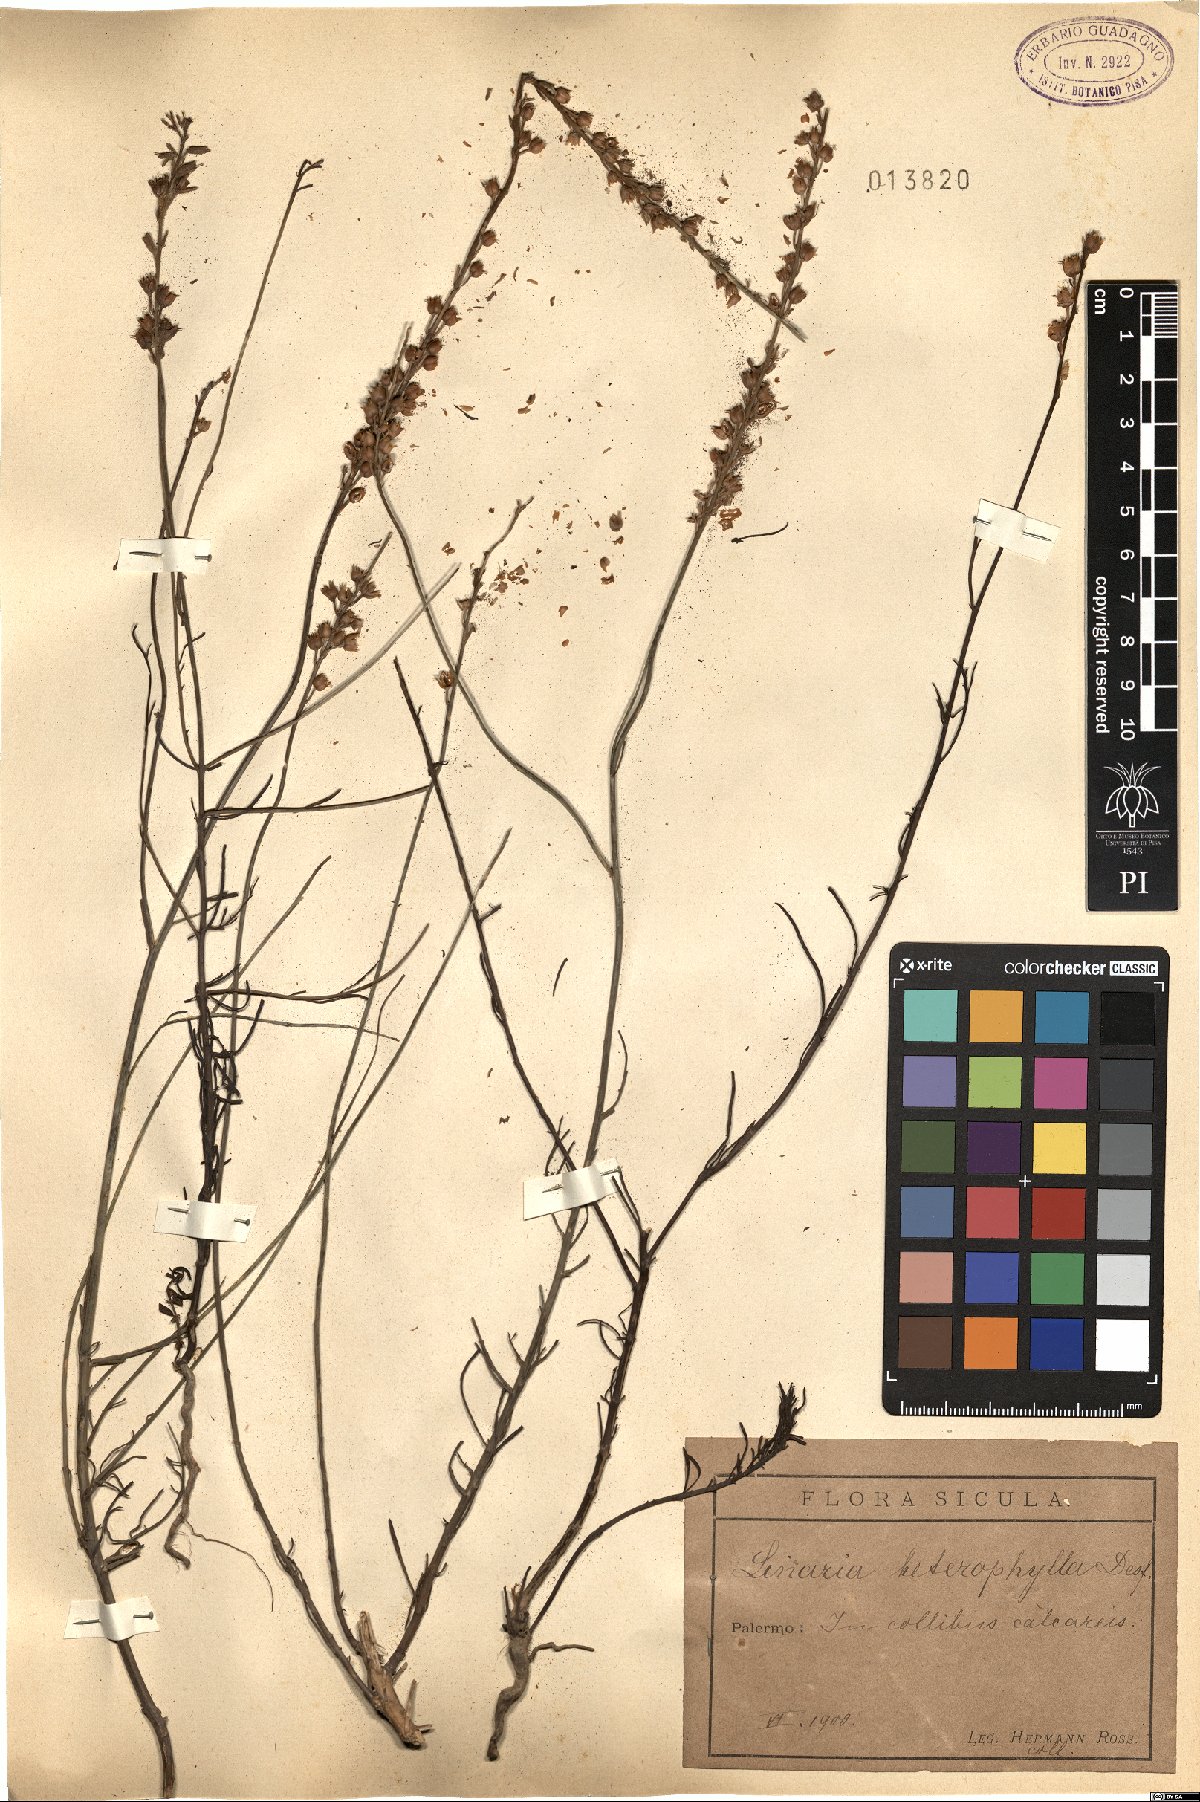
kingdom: Plantae
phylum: Tracheophyta
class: Magnoliopsida
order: Lamiales
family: Plantaginaceae
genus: Linaria
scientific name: Linaria multicaulis
